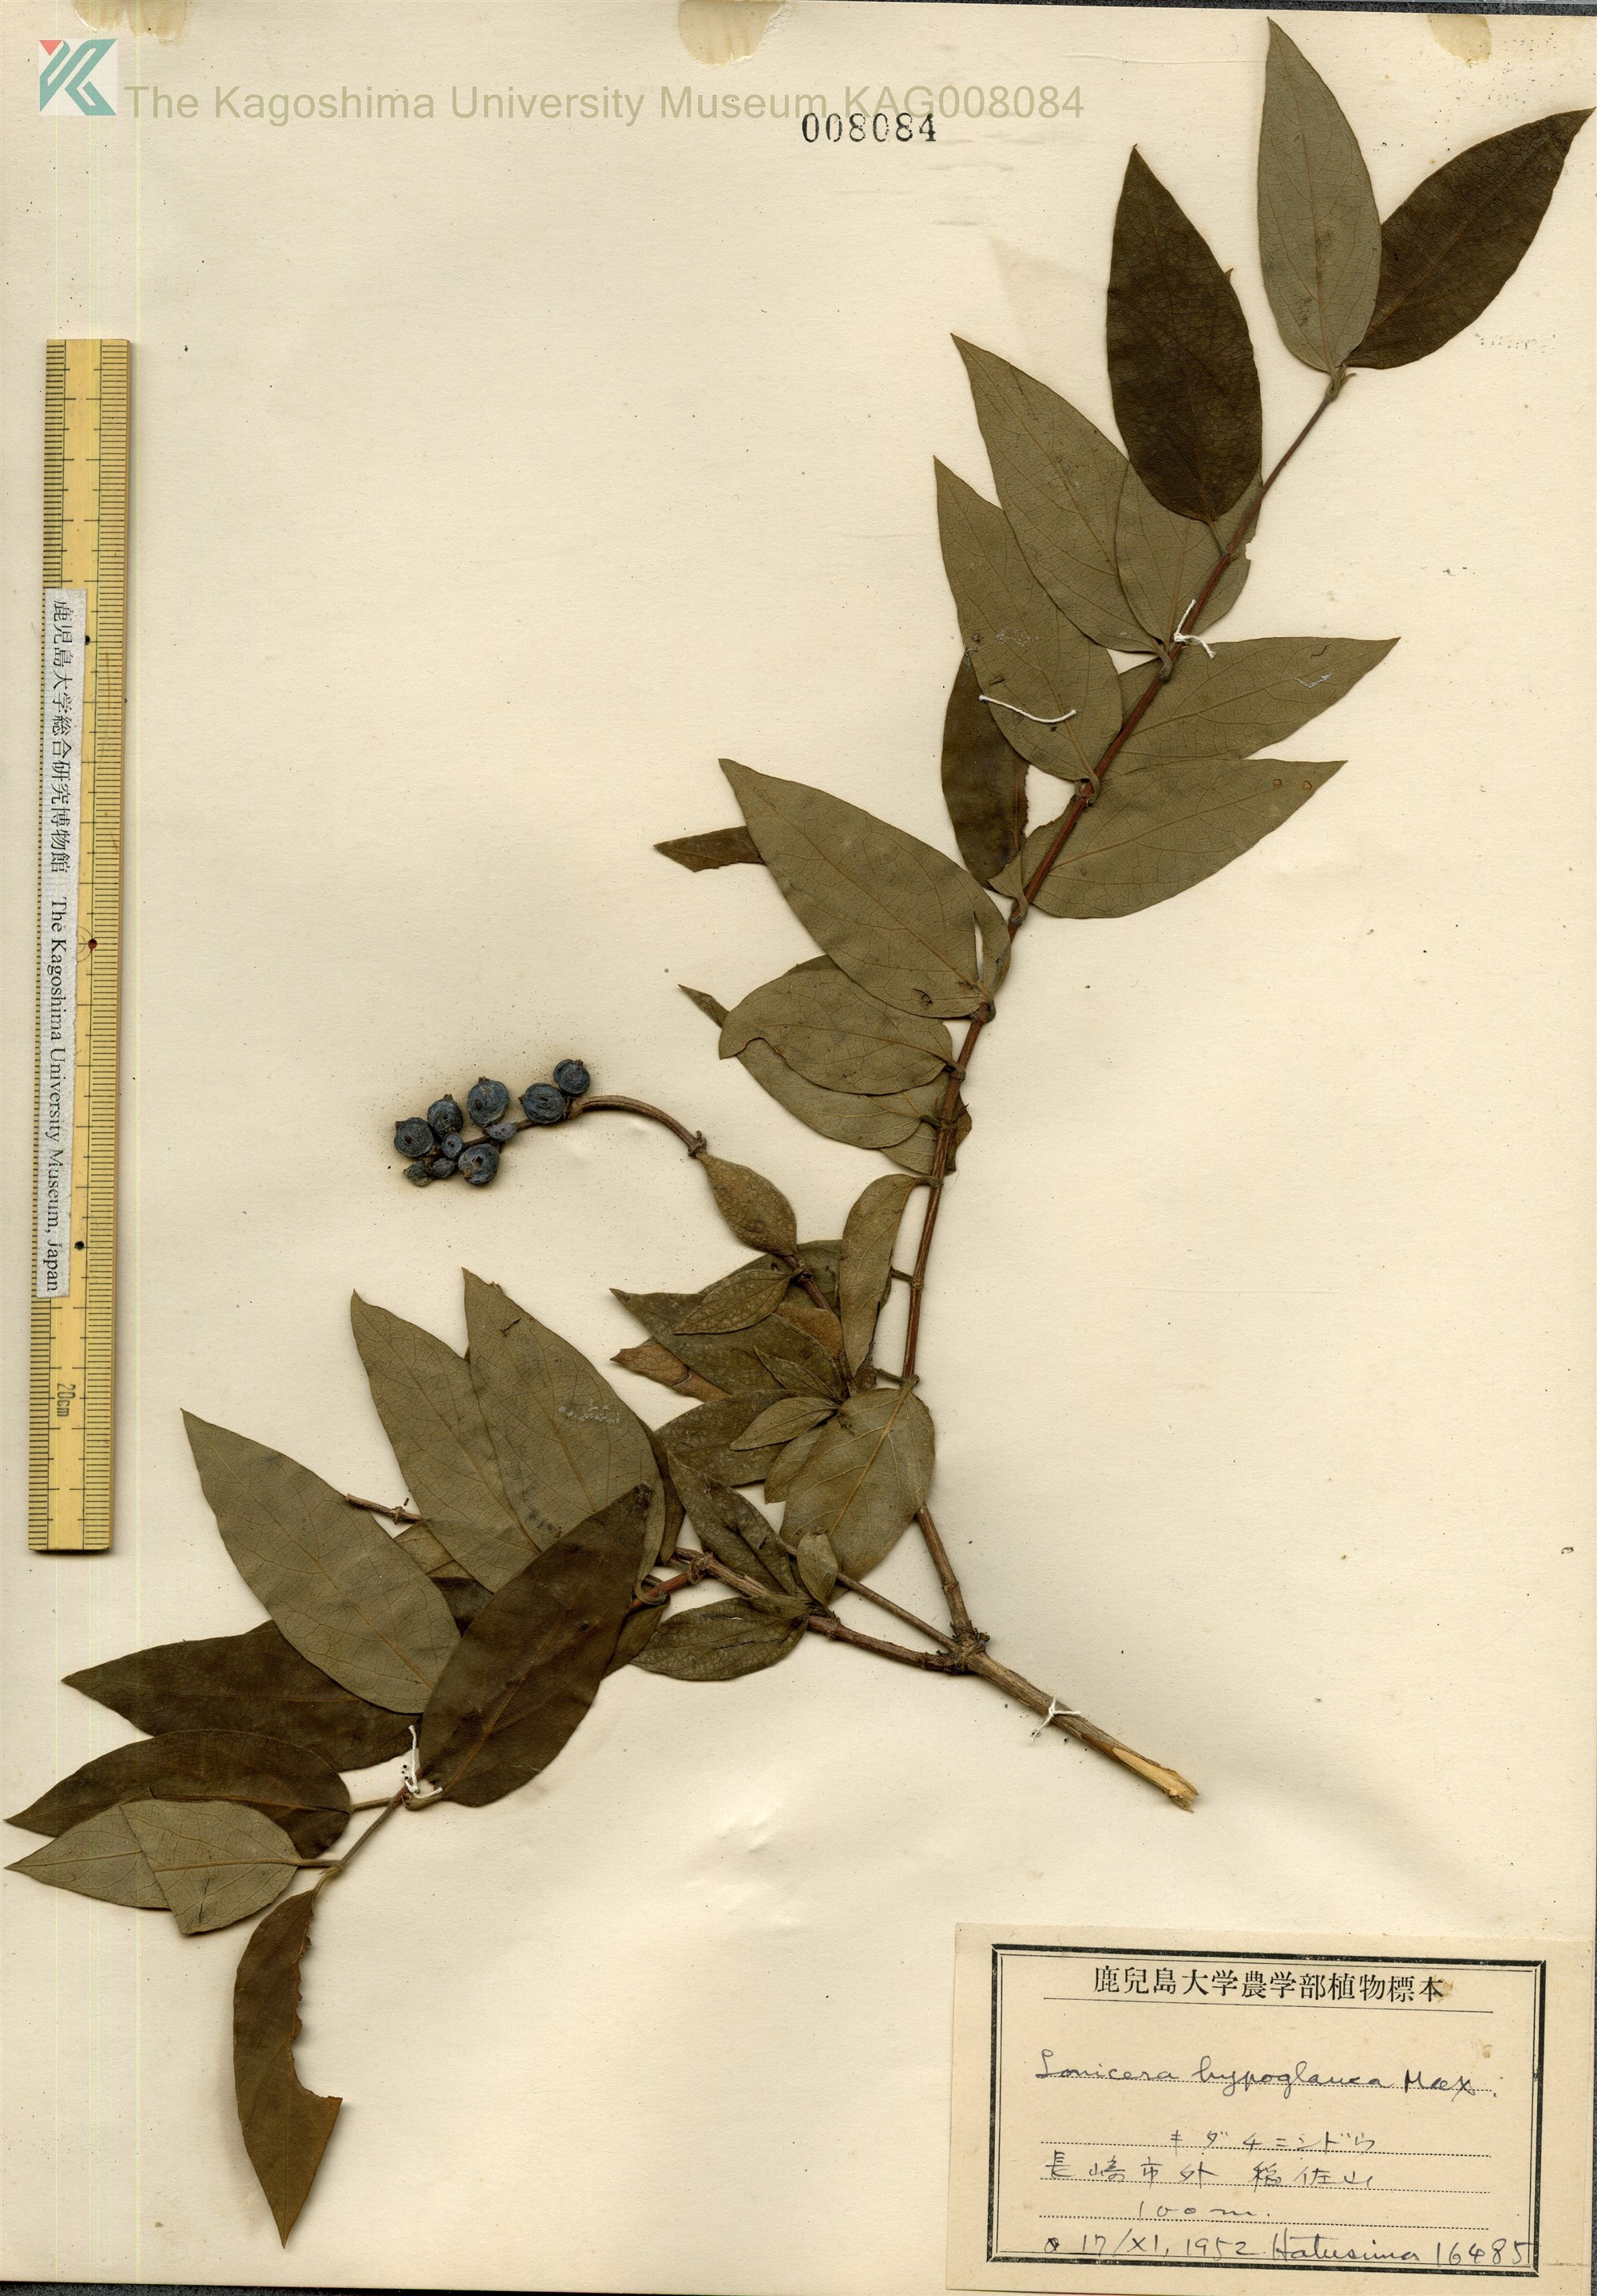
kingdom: Plantae
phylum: Tracheophyta
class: Magnoliopsida
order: Dipsacales
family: Caprifoliaceae
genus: Lonicera
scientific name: Lonicera hypoglauca
